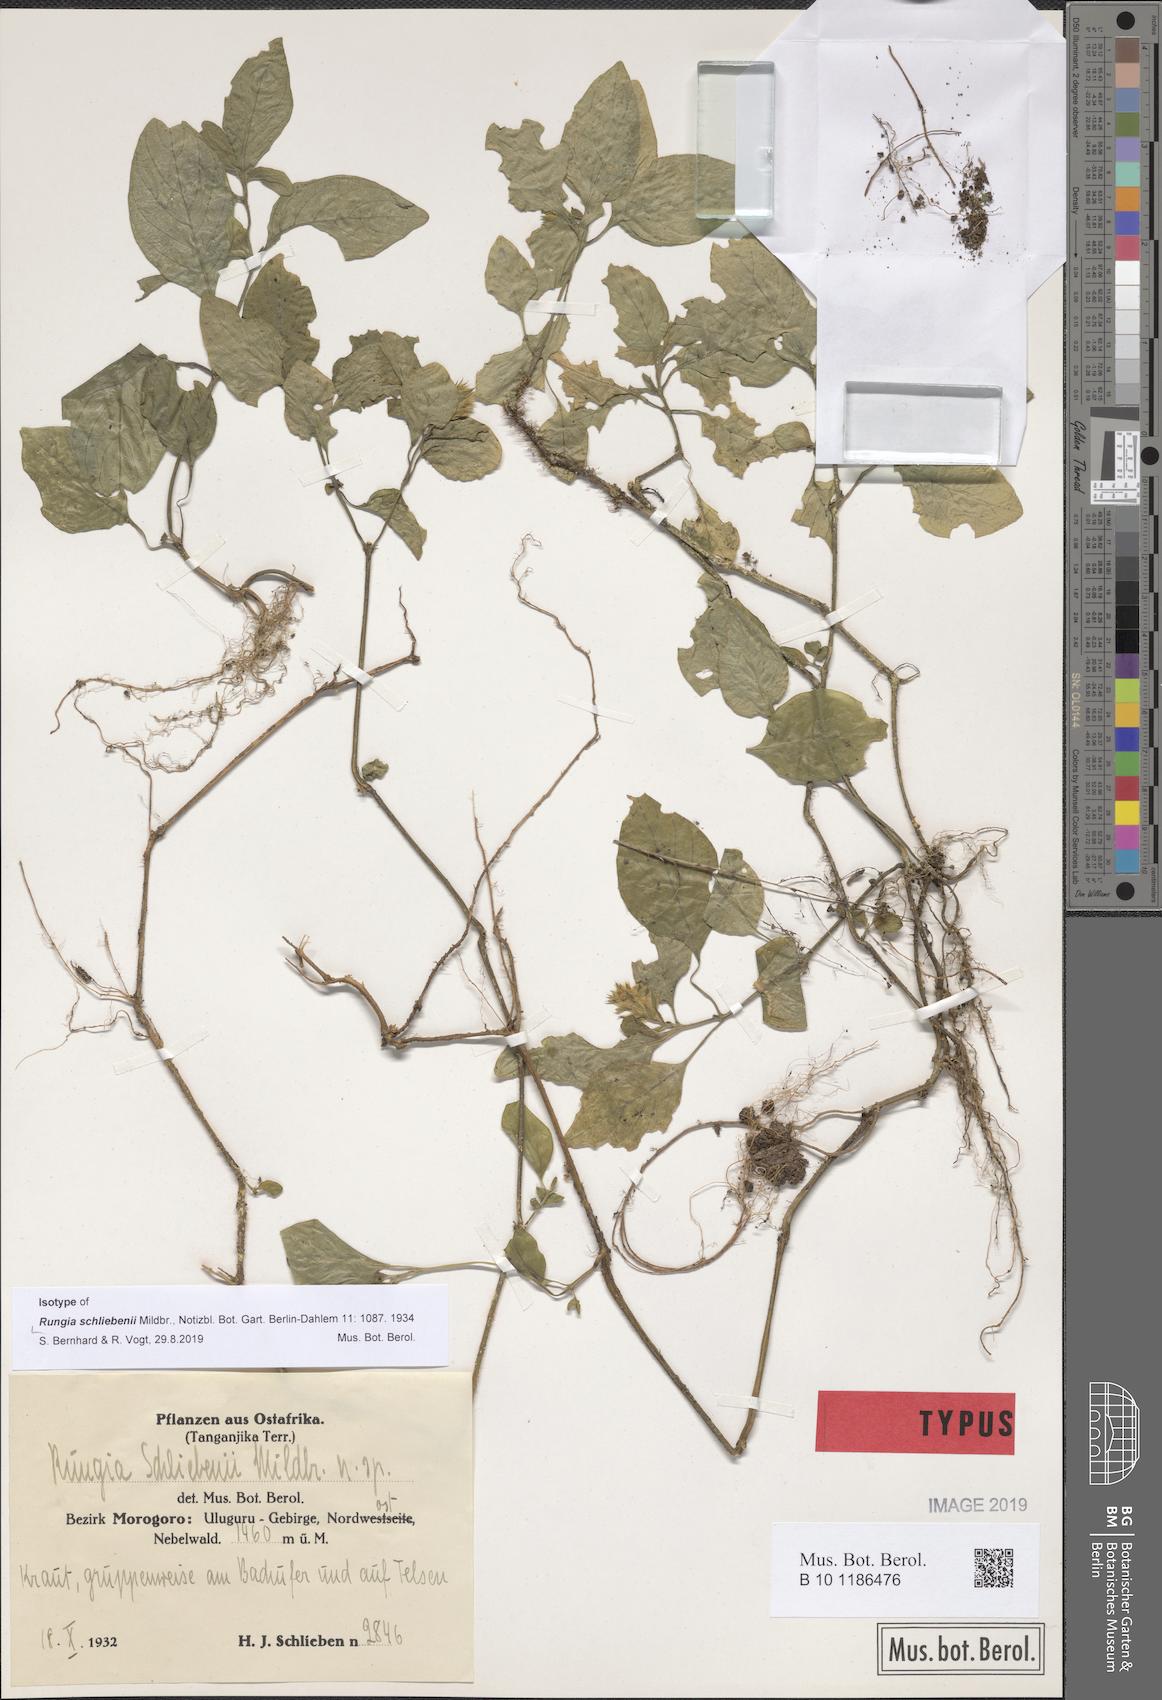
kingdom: Plantae
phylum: Tracheophyta
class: Magnoliopsida
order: Lamiales
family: Acanthaceae
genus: Rungia
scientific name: Rungia schliebenii
